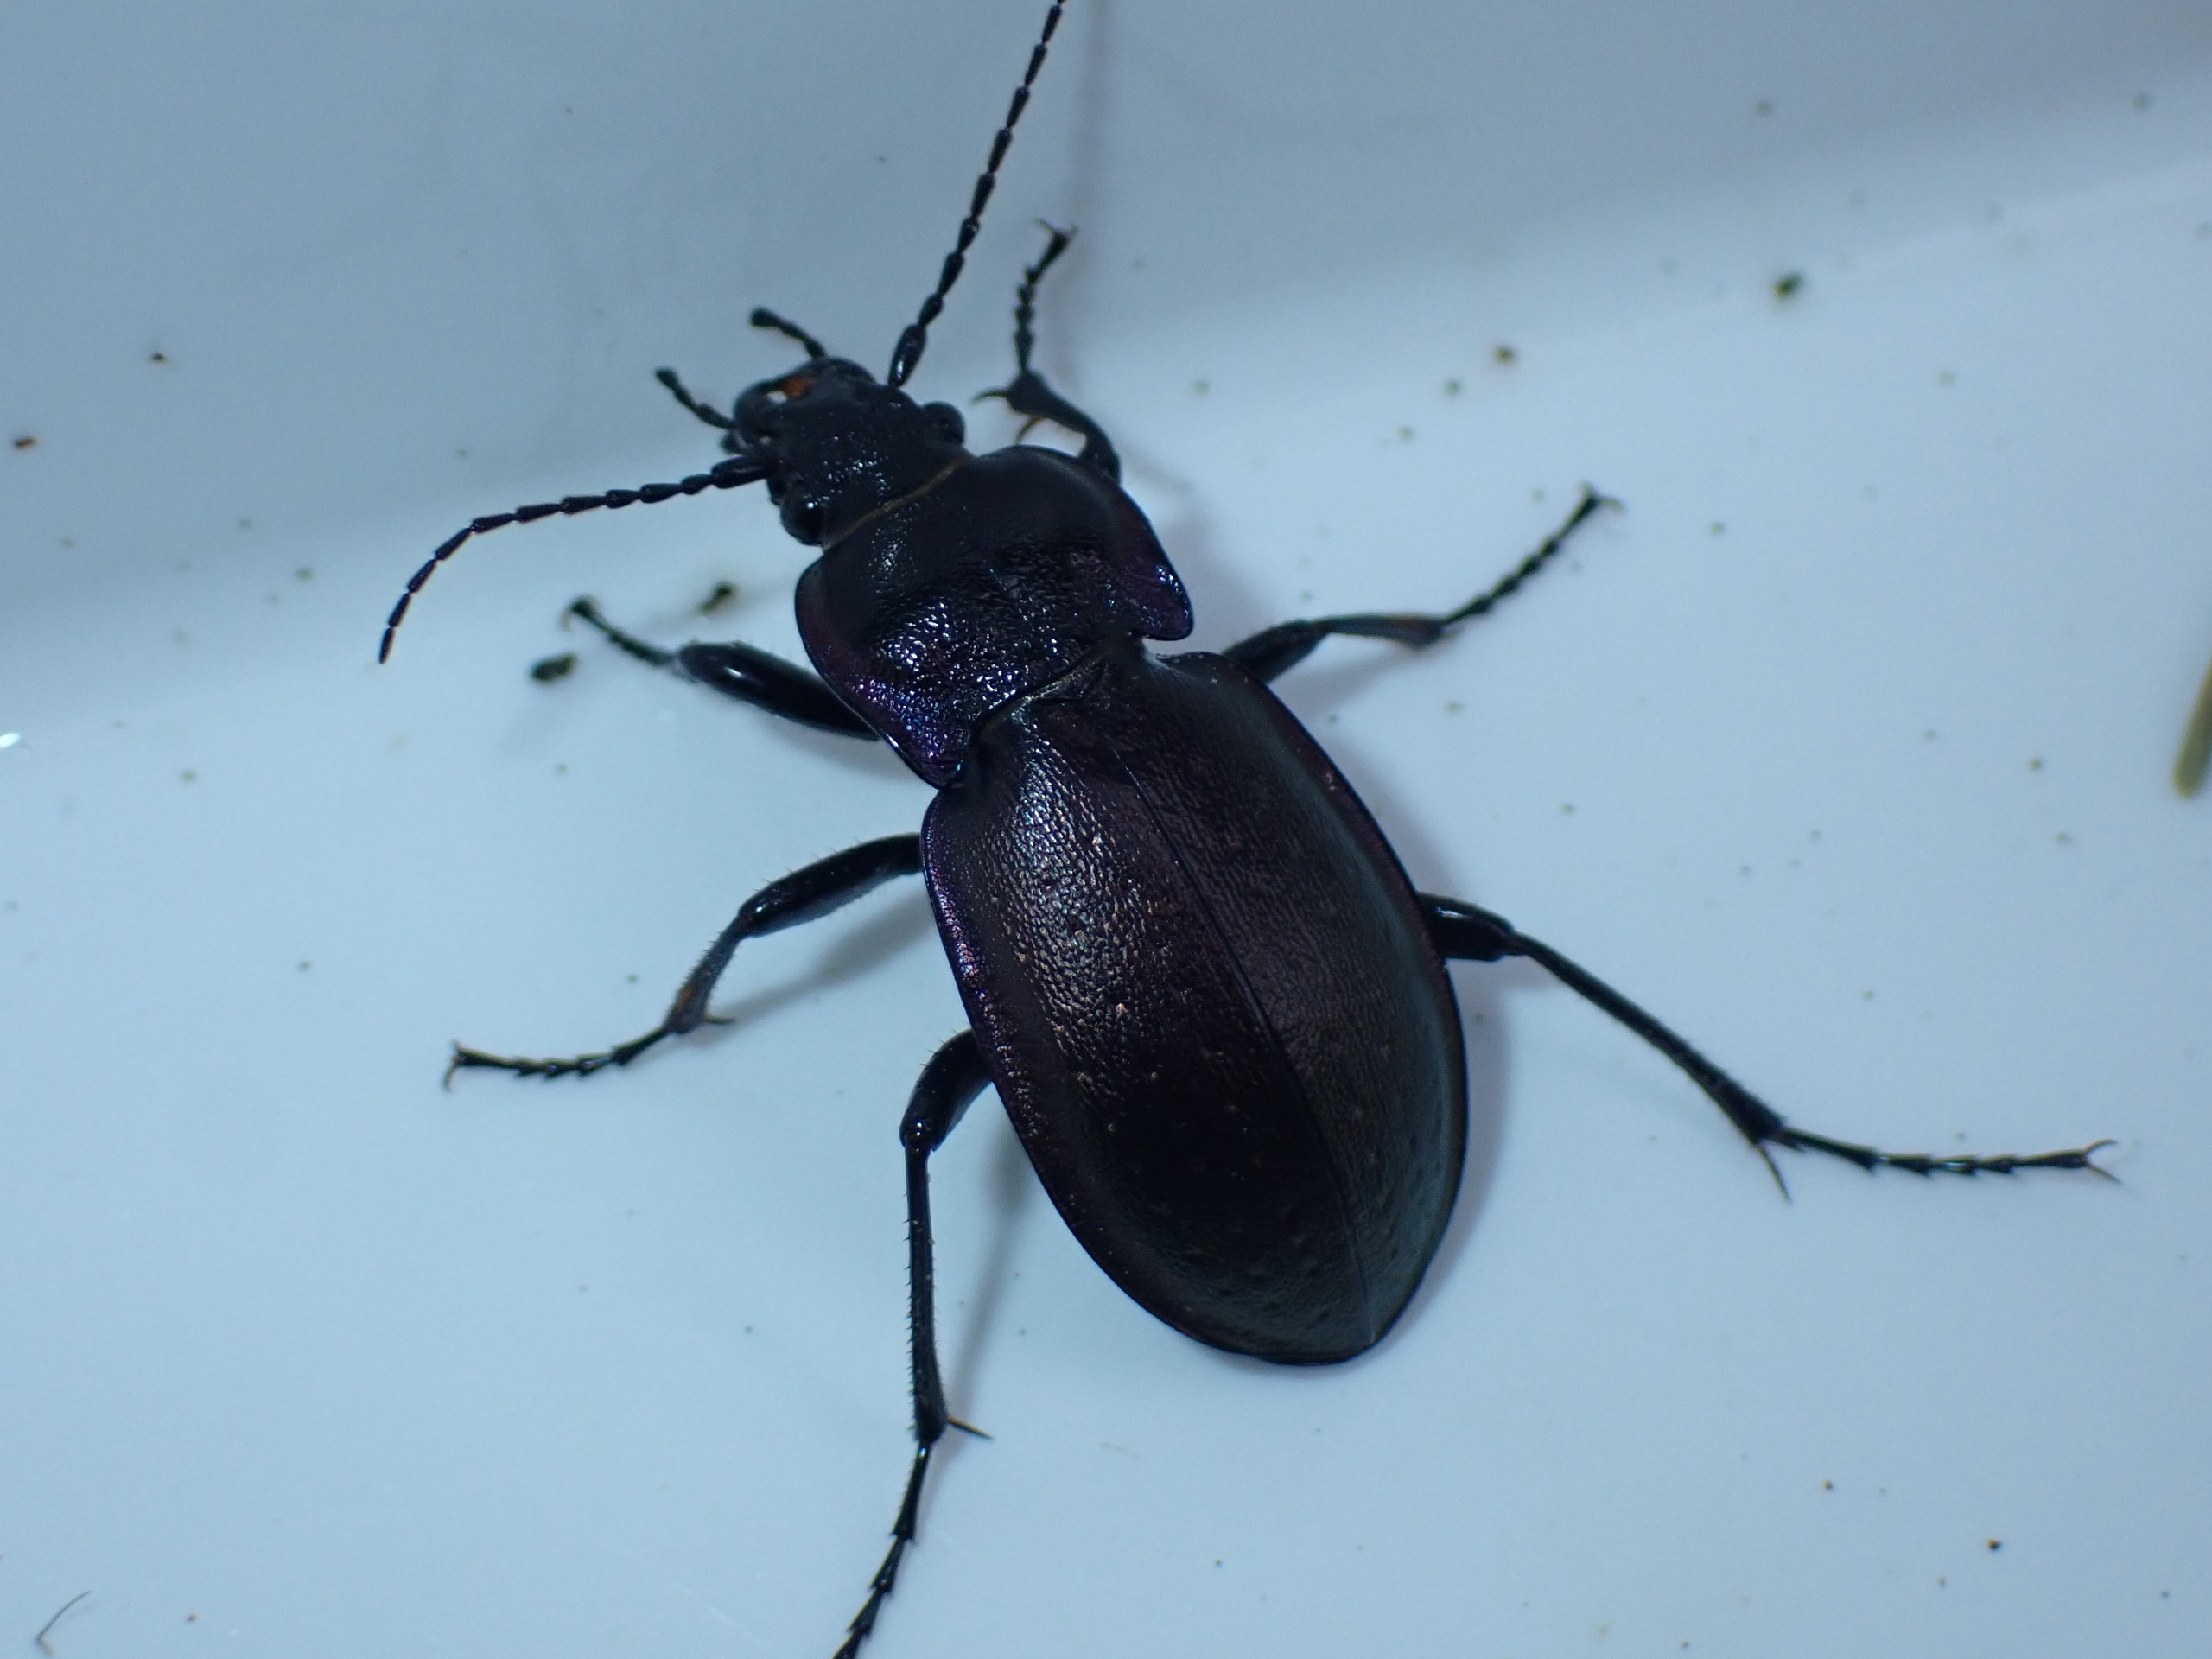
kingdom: Animalia
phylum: Arthropoda
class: Insecta
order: Coleoptera
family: Carabidae
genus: Carabus
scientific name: Carabus nemoralis
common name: Kratløber
